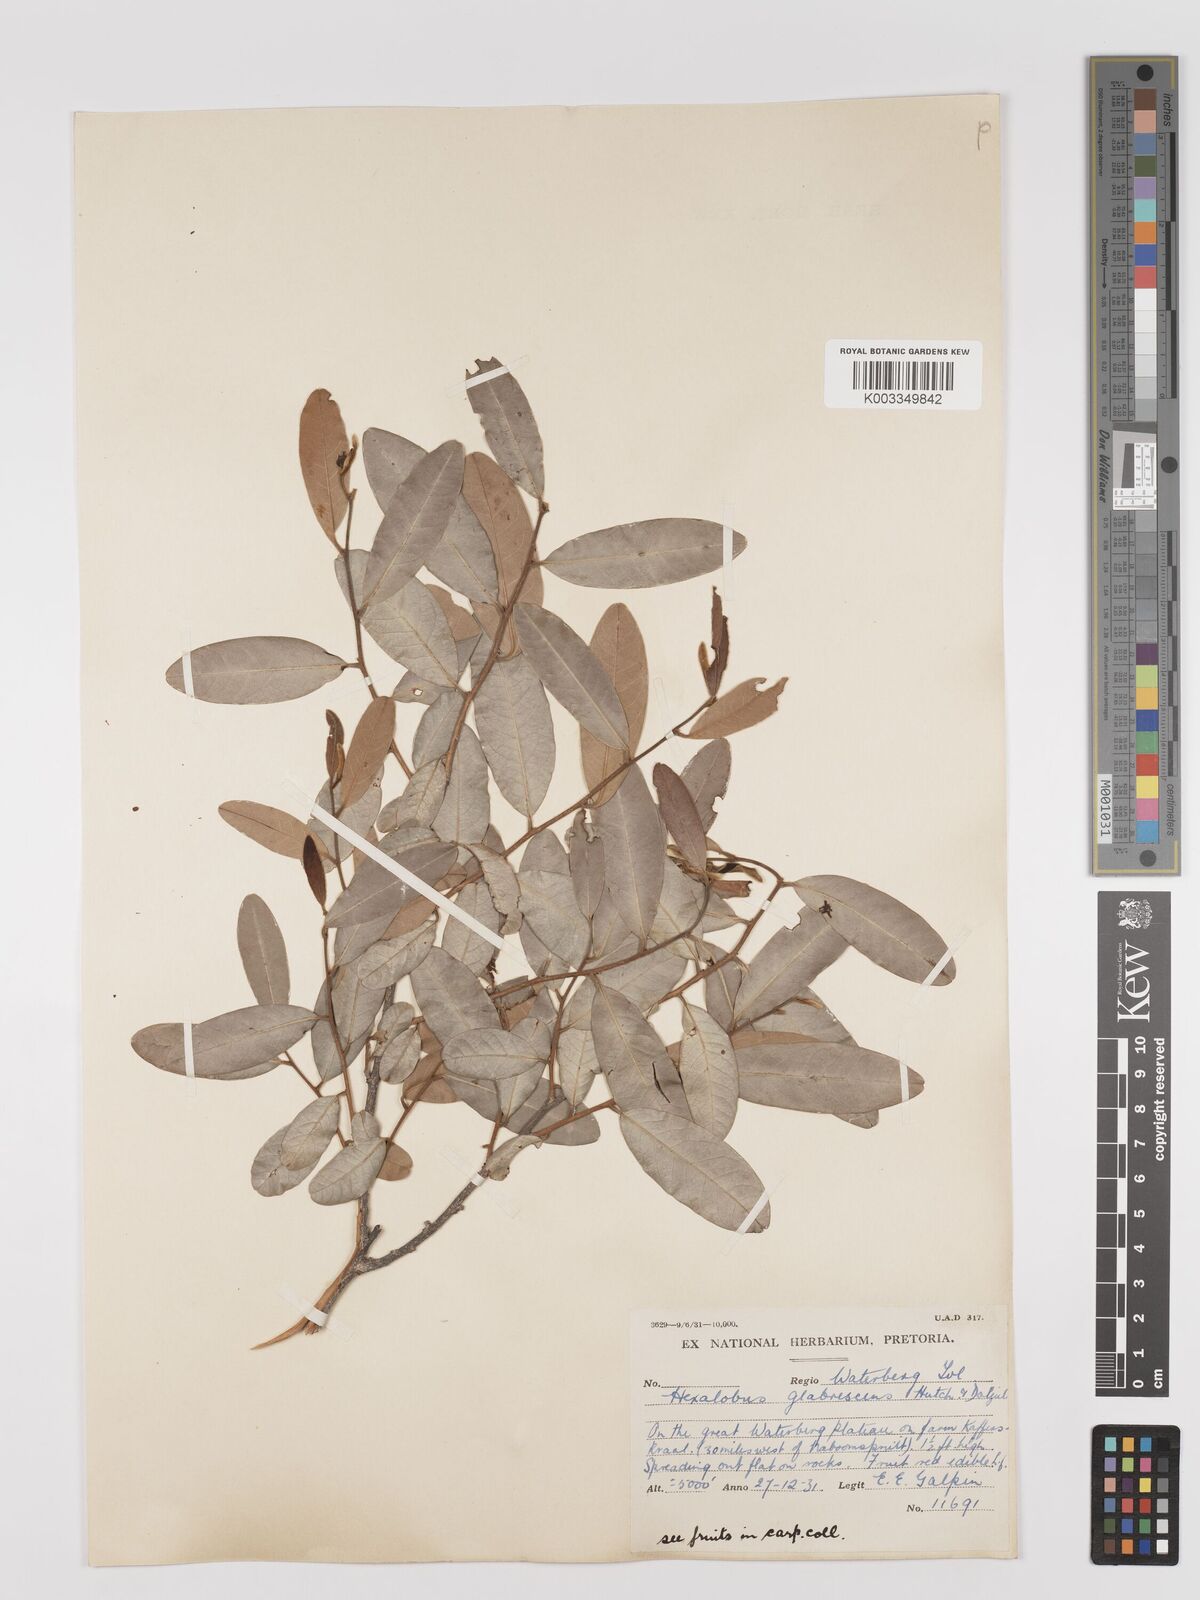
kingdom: Plantae
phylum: Tracheophyta
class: Magnoliopsida
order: Magnoliales
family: Annonaceae
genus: Hexalobus
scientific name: Hexalobus monopetalus
